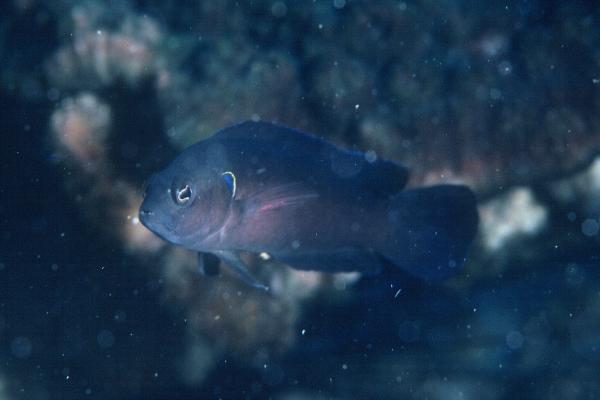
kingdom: Animalia
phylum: Chordata
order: Perciformes
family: Pseudochromidae
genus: Pseudochromis
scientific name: Pseudochromis melas
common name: Dark dottyback
